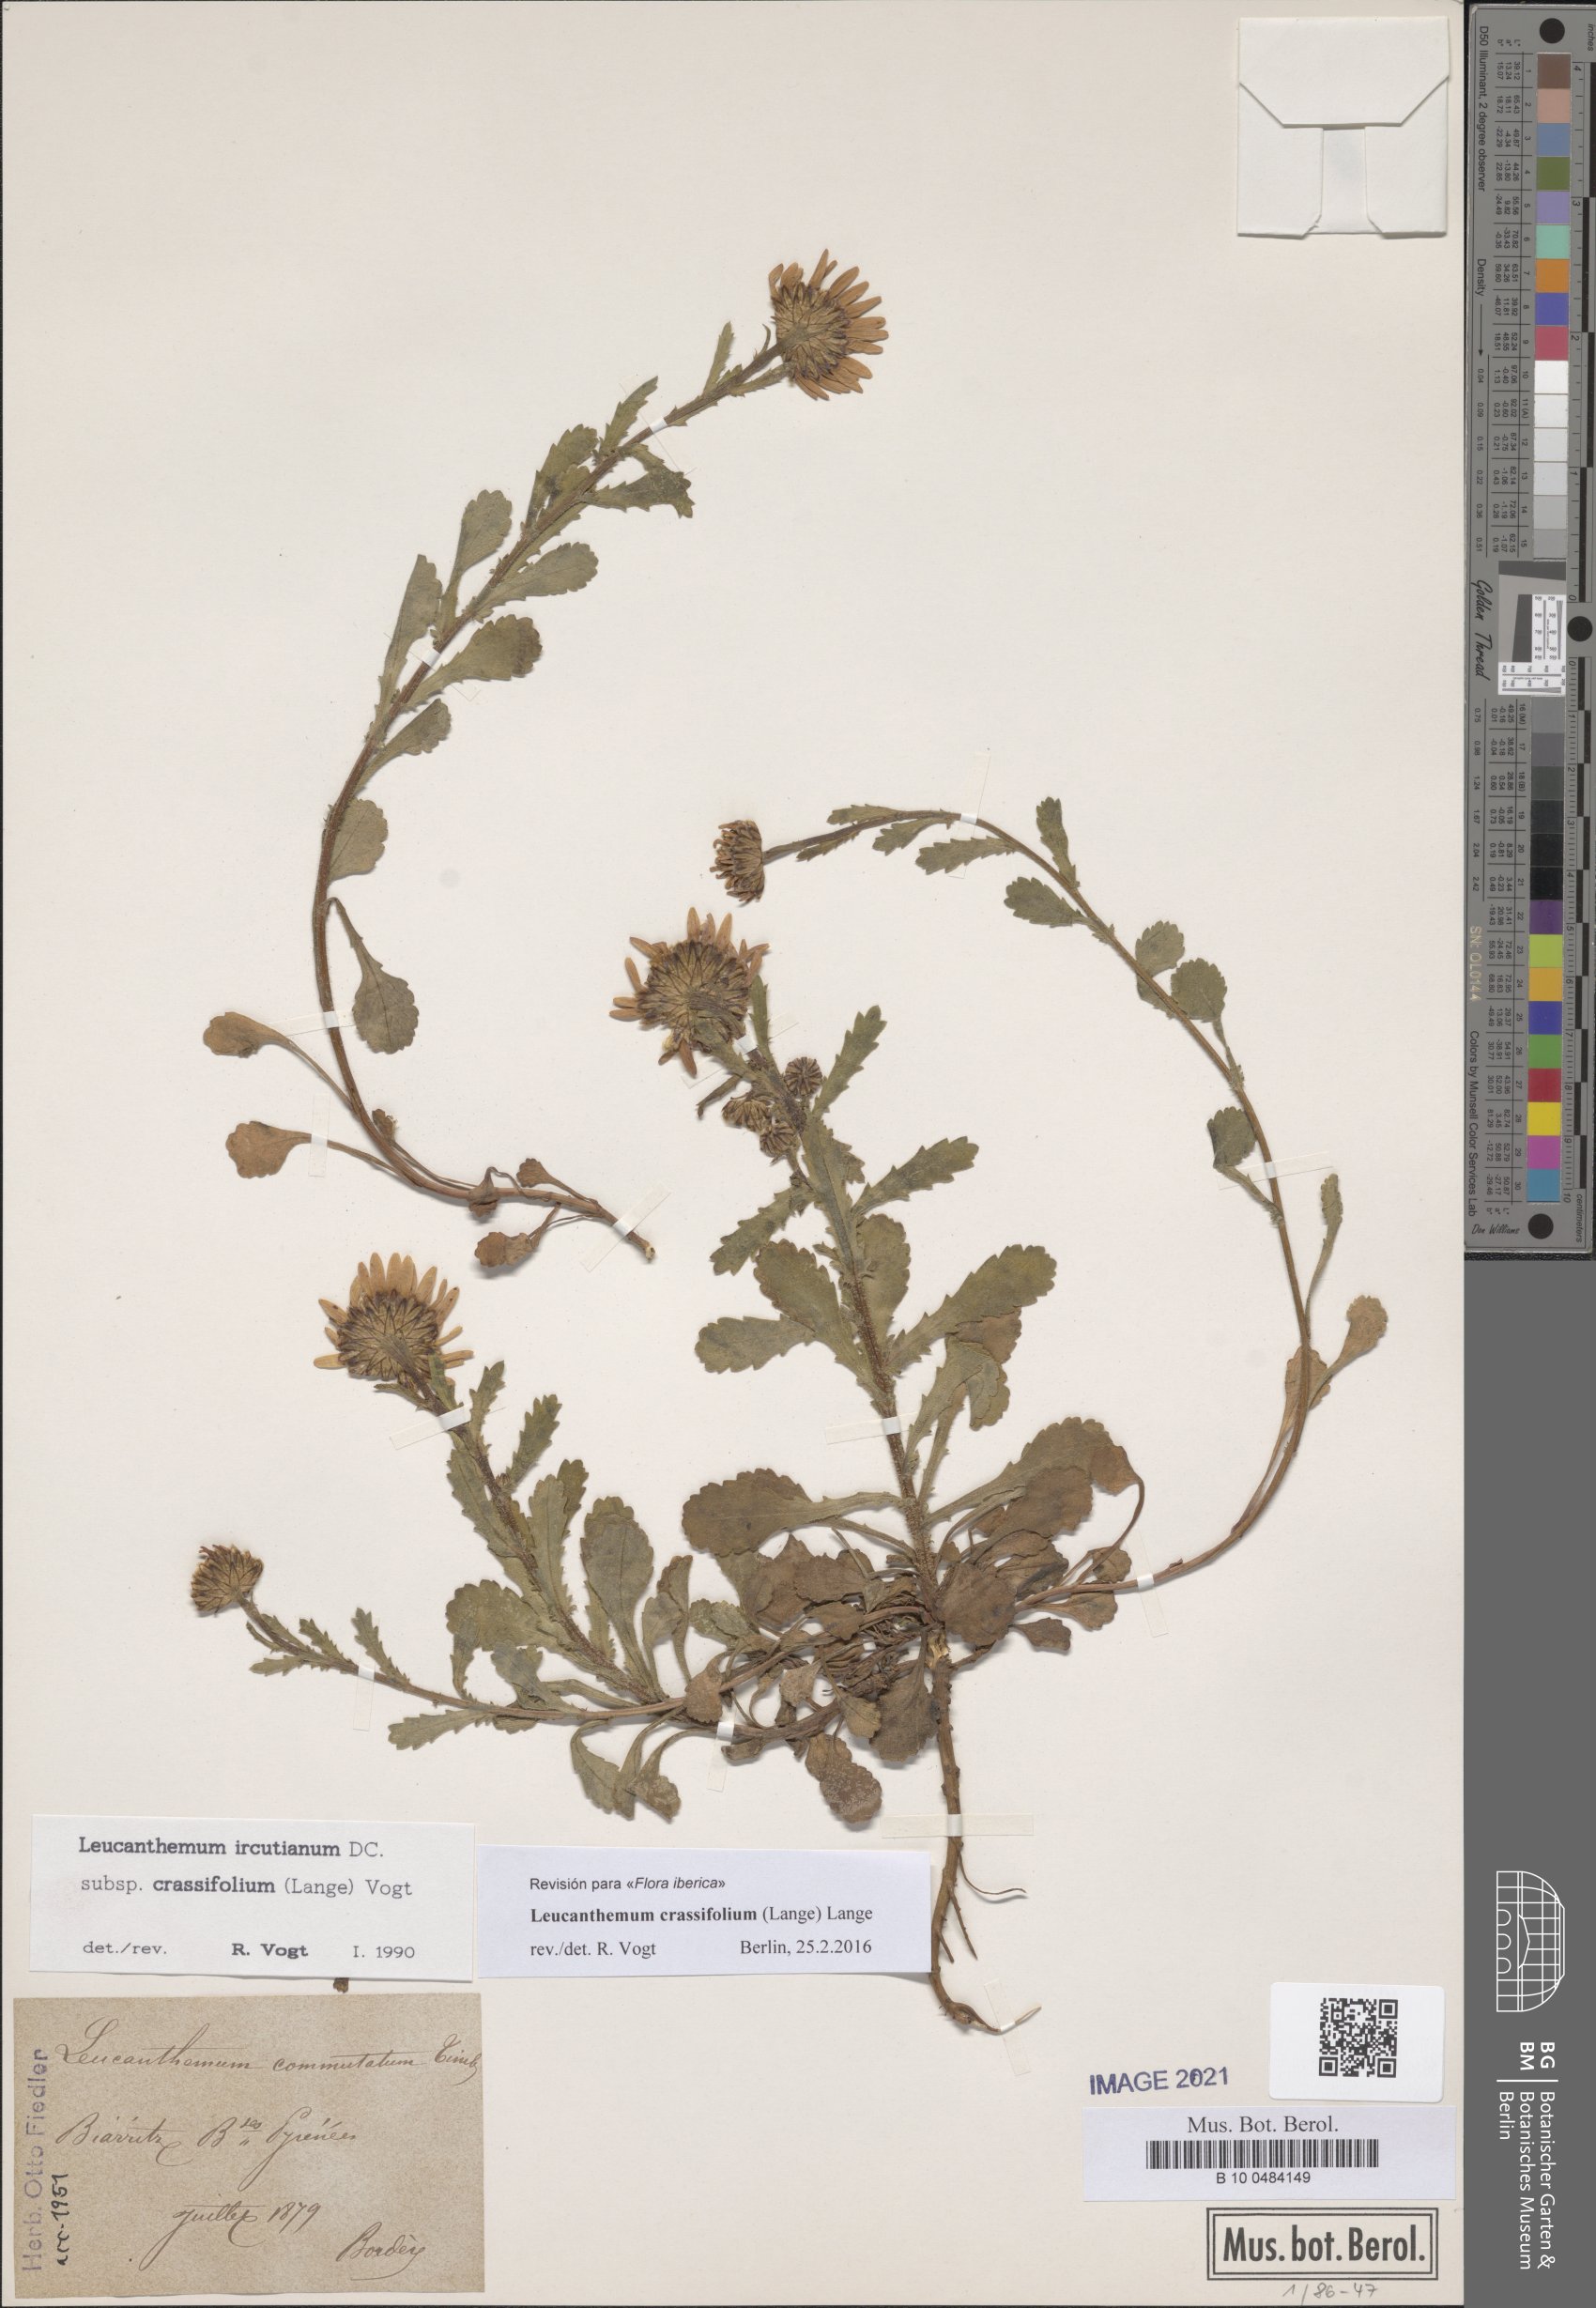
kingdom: Plantae
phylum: Tracheophyta
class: Magnoliopsida
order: Asterales
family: Asteraceae
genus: Leucanthemum
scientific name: Leucanthemum crassifolium
